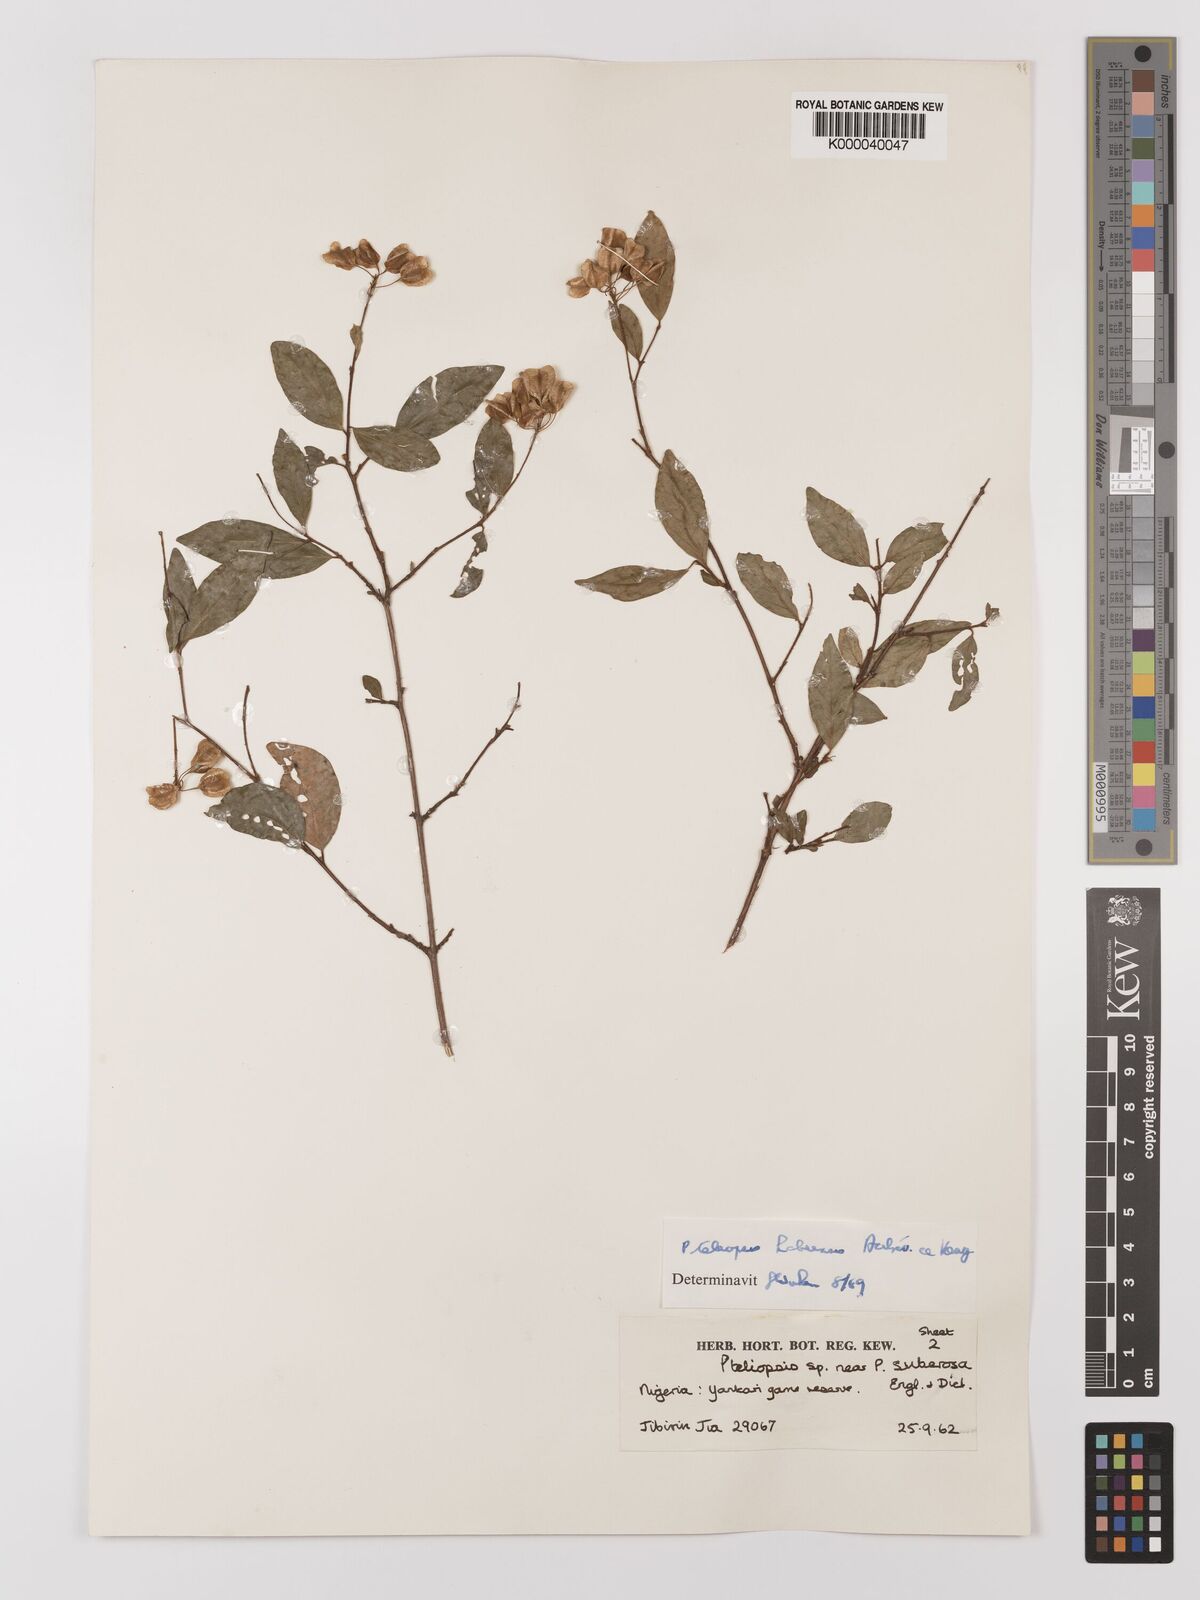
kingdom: Plantae
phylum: Tracheophyta
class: Magnoliopsida
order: Myrtales
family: Combretaceae
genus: Terminalia
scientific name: Terminalia
